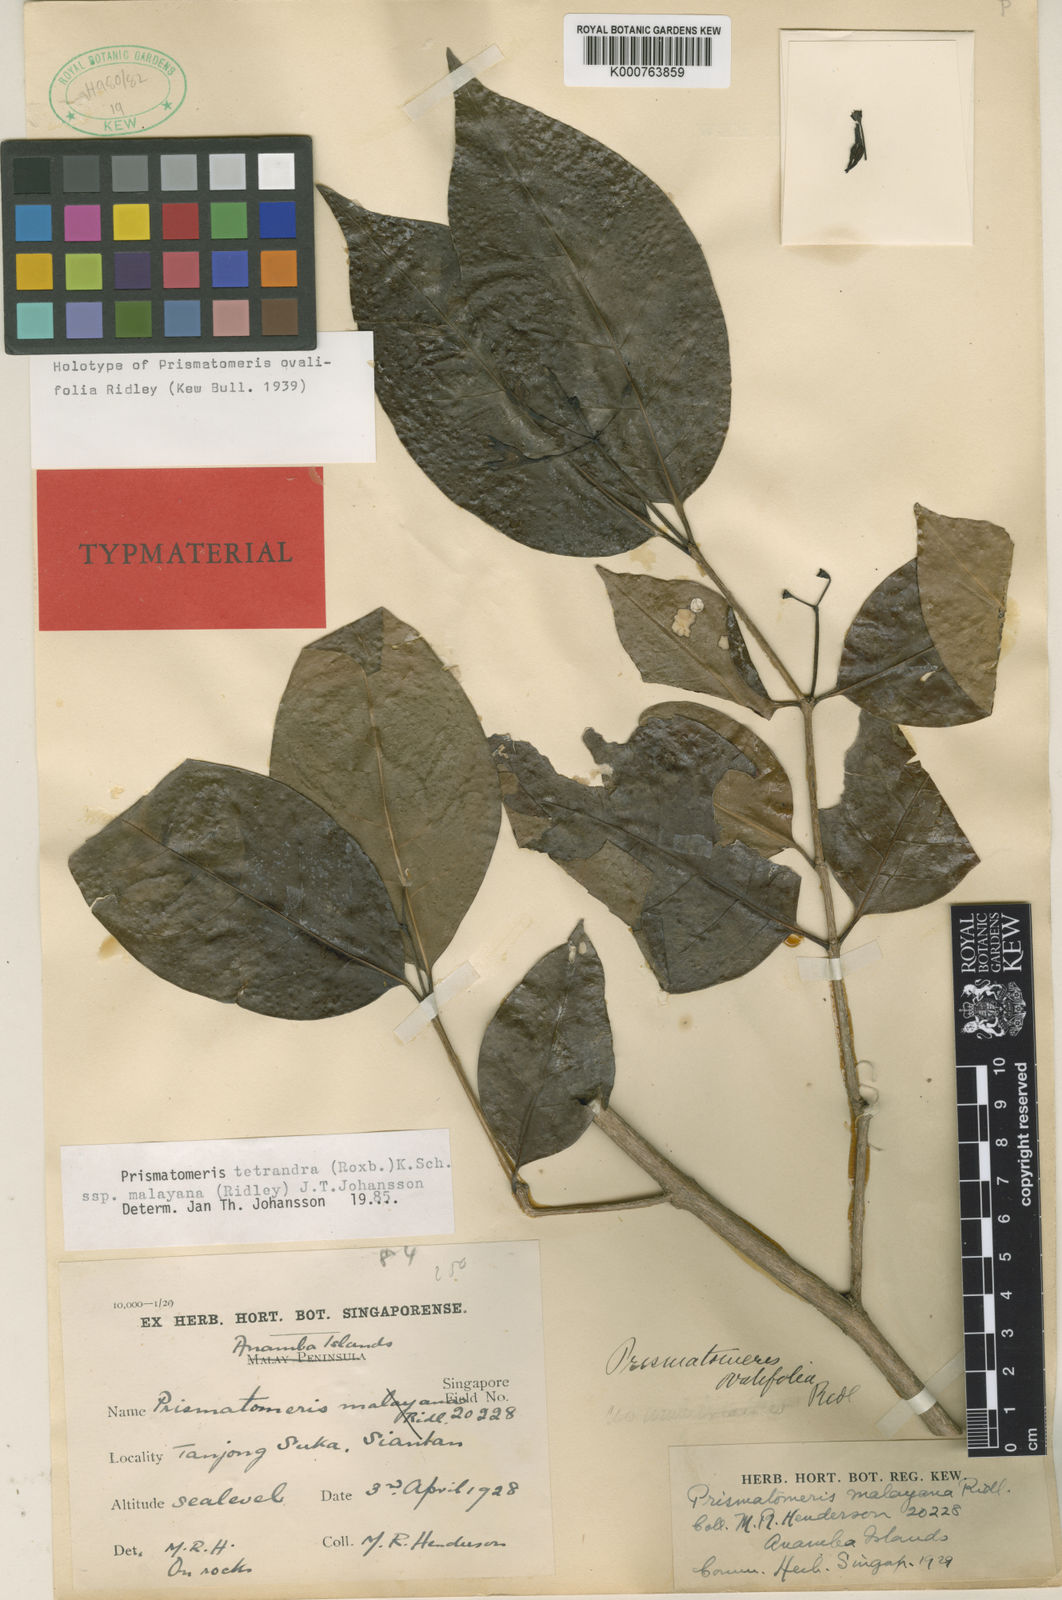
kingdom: Plantae
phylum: Tracheophyta
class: Magnoliopsida
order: Gentianales
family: Rubiaceae
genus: Prismatomeris
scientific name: Prismatomeris tetrandra
